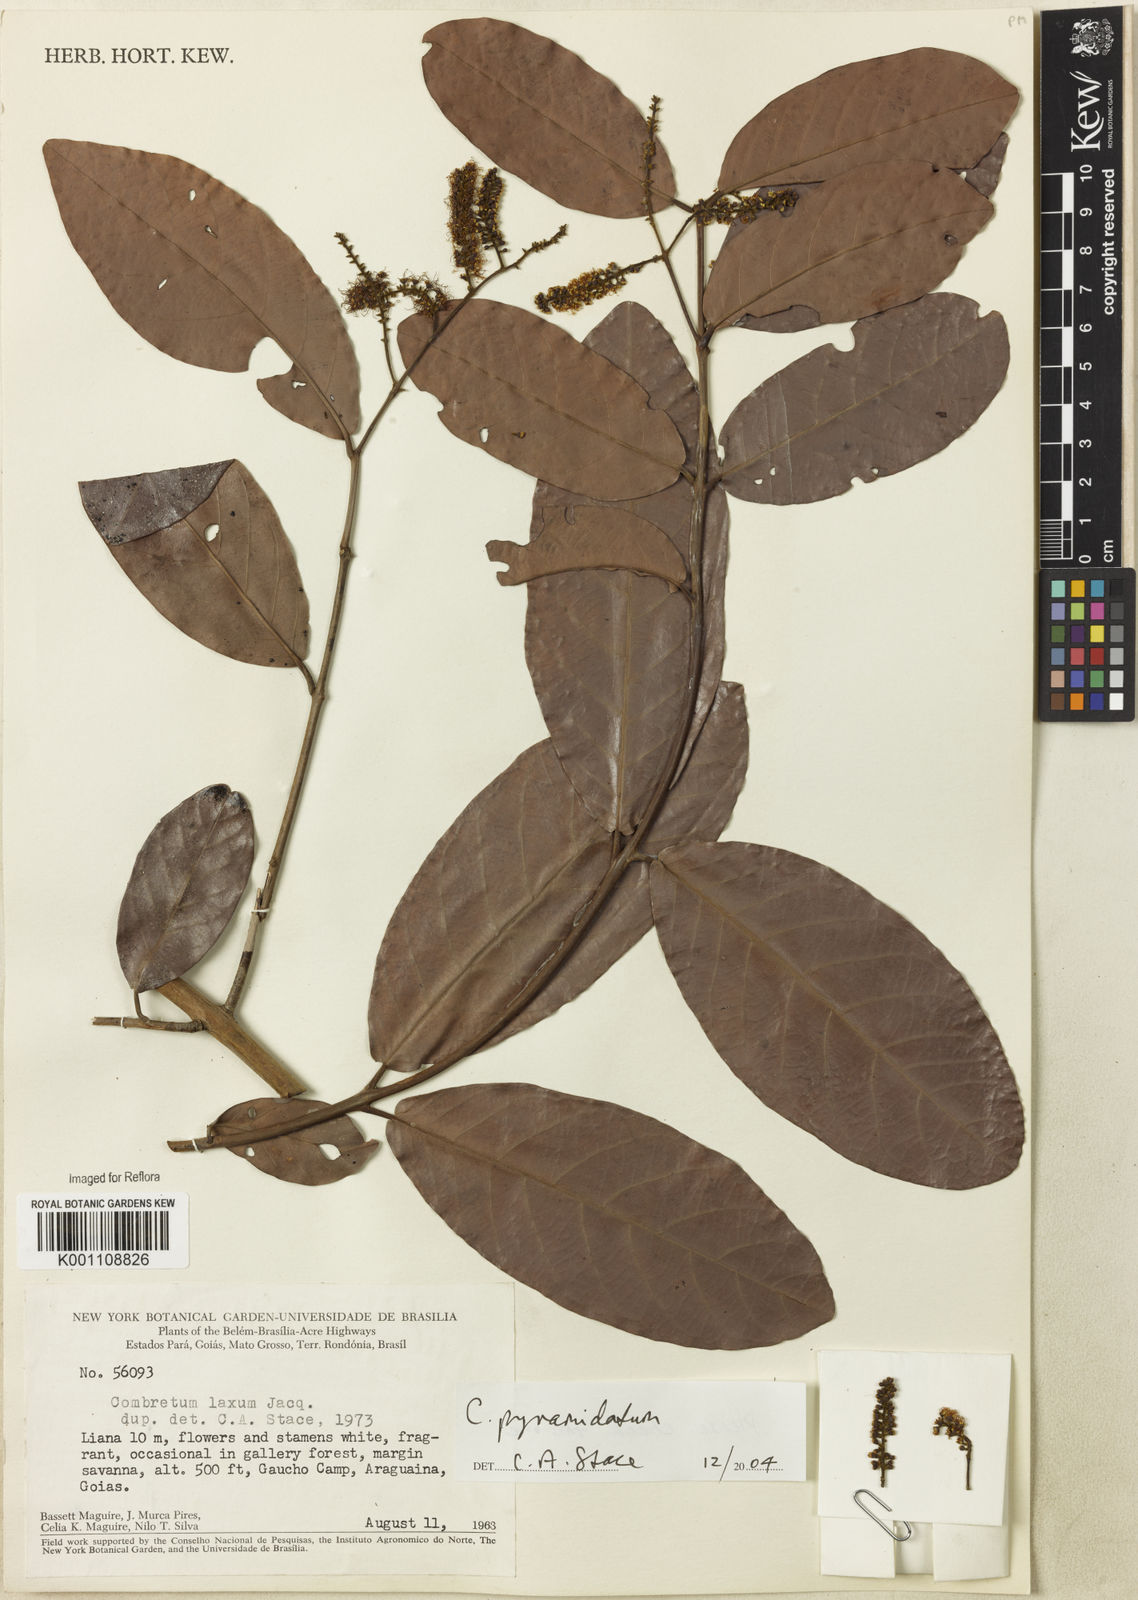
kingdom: Plantae
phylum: Tracheophyta
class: Magnoliopsida
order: Myrtales
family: Combretaceae
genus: Combretum
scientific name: Combretum pyramidatum
